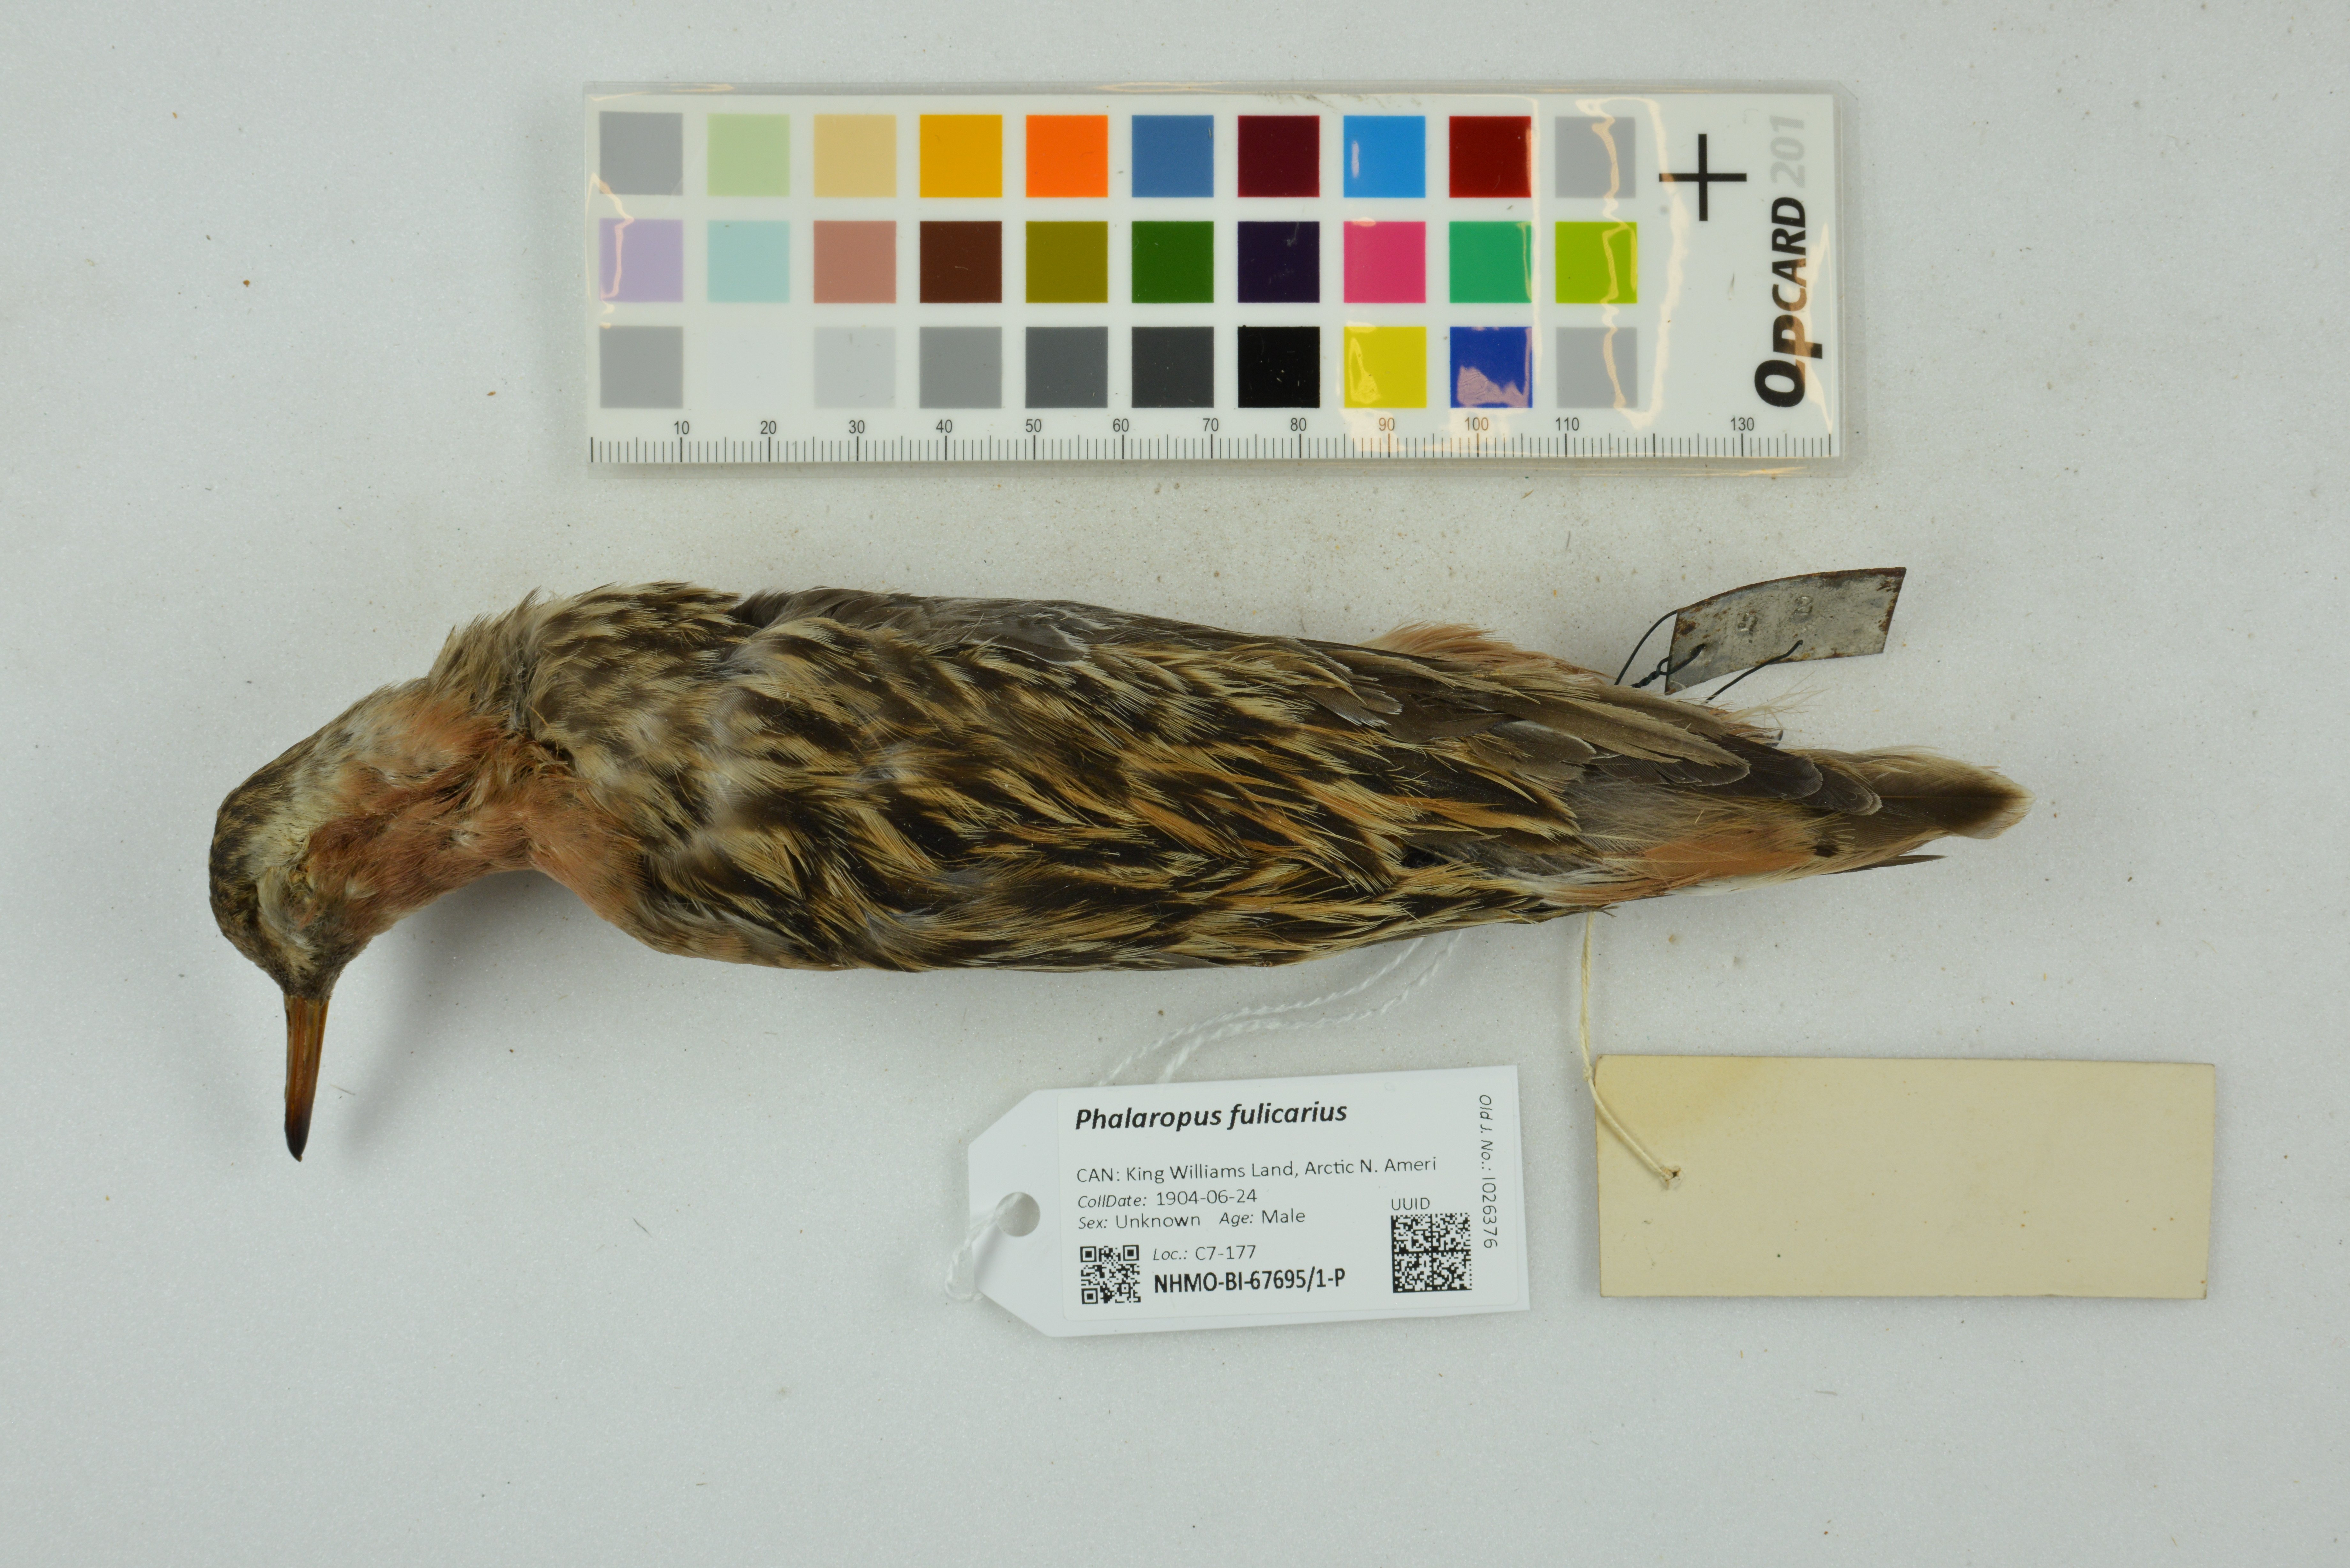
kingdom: Animalia
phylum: Chordata
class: Aves
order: Charadriiformes
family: Scolopacidae
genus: Phalaropus
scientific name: Phalaropus fulicarius
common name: Red phalarope
